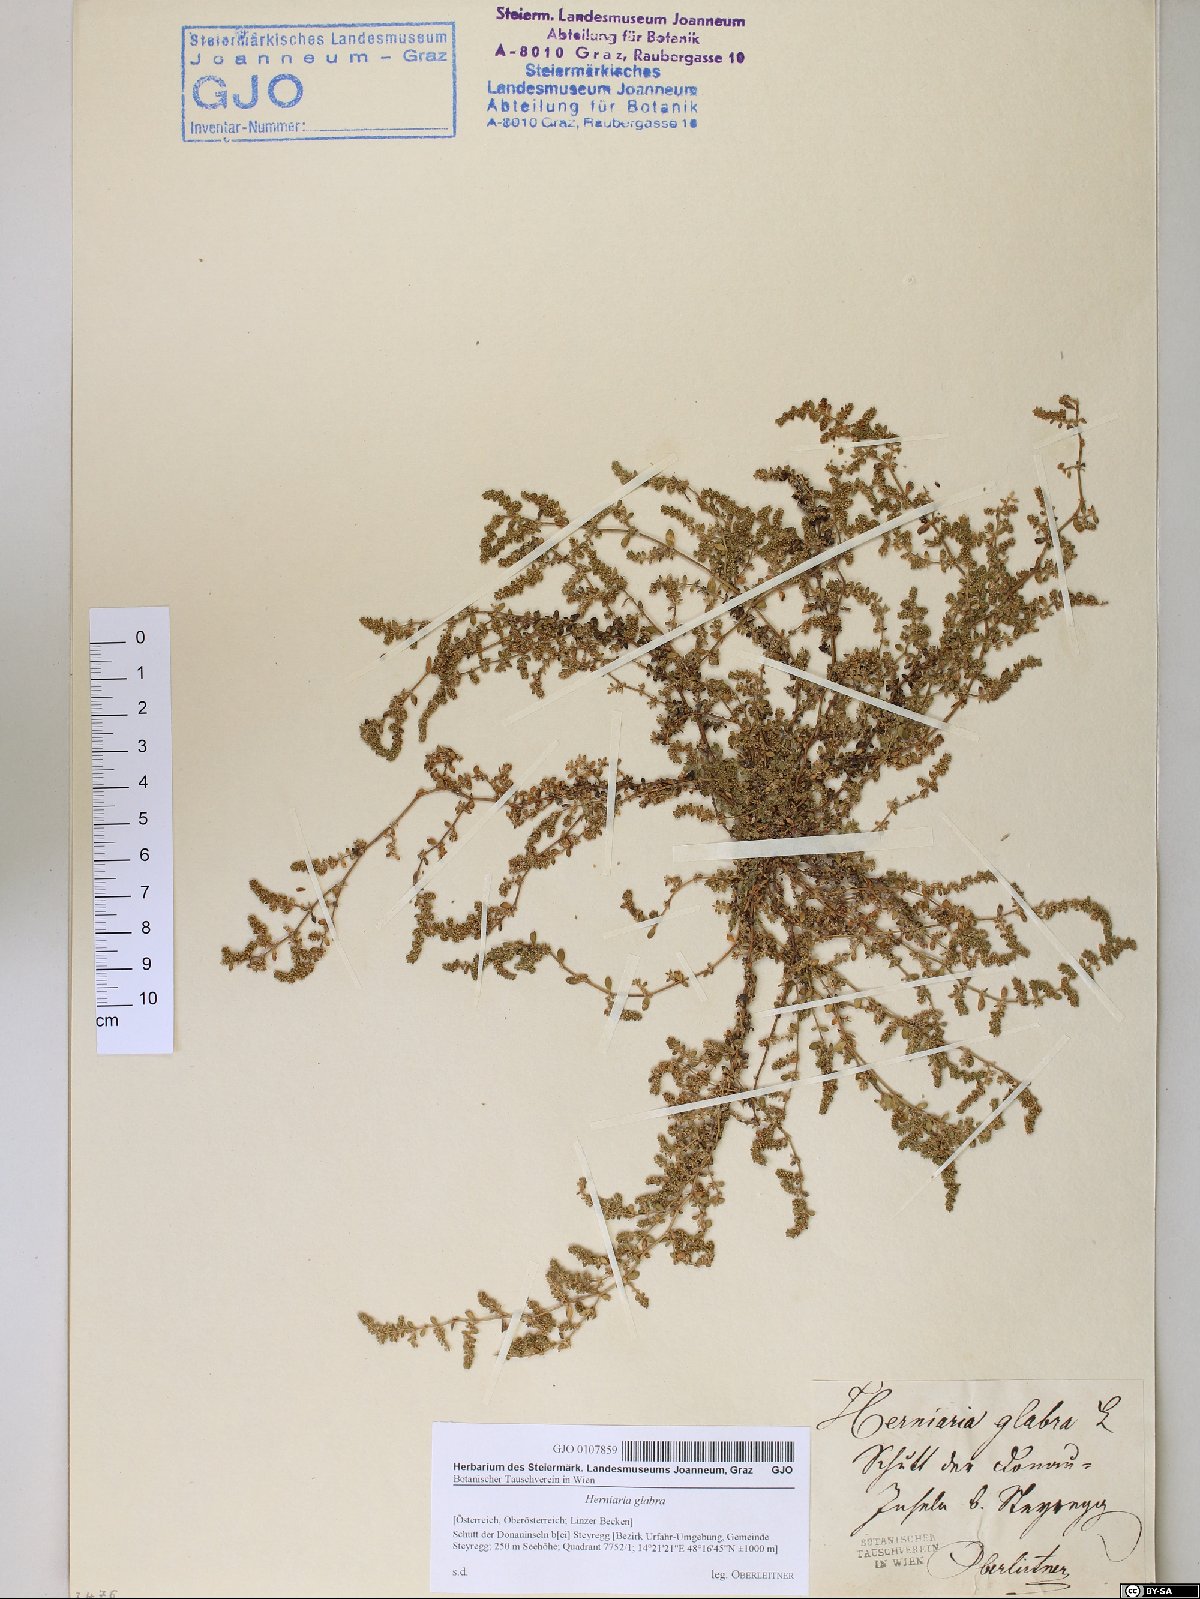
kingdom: Plantae
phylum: Tracheophyta
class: Magnoliopsida
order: Caryophyllales
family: Caryophyllaceae
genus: Herniaria
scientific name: Herniaria glabra
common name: Smooth rupturewort
